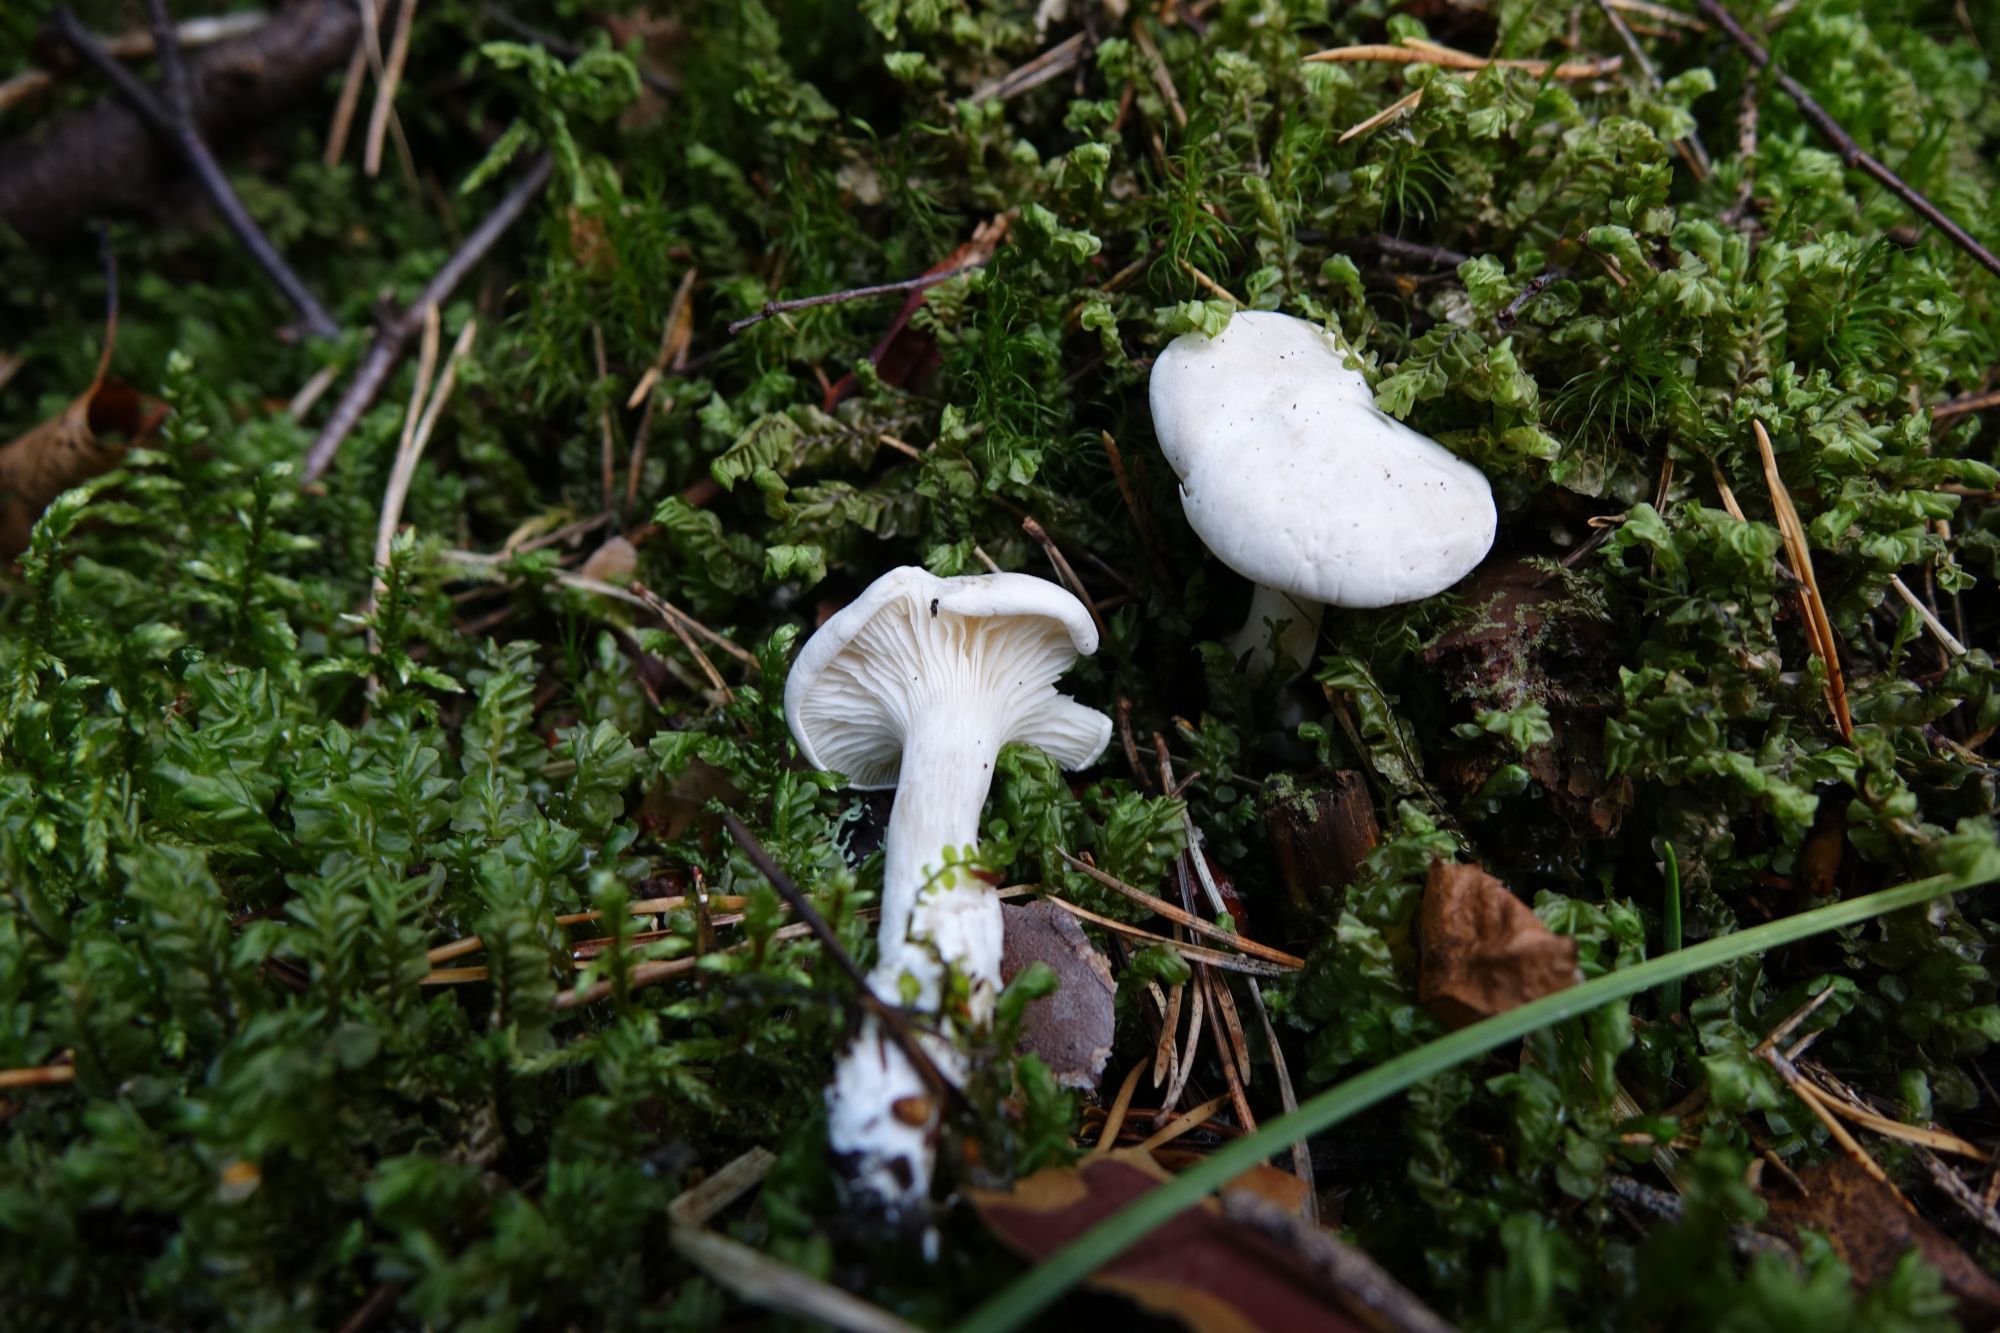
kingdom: Fungi
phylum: Basidiomycota
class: Agaricomycetes
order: Agaricales
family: Entolomataceae
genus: Clitopilus
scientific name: Clitopilus prunulus
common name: The miller
